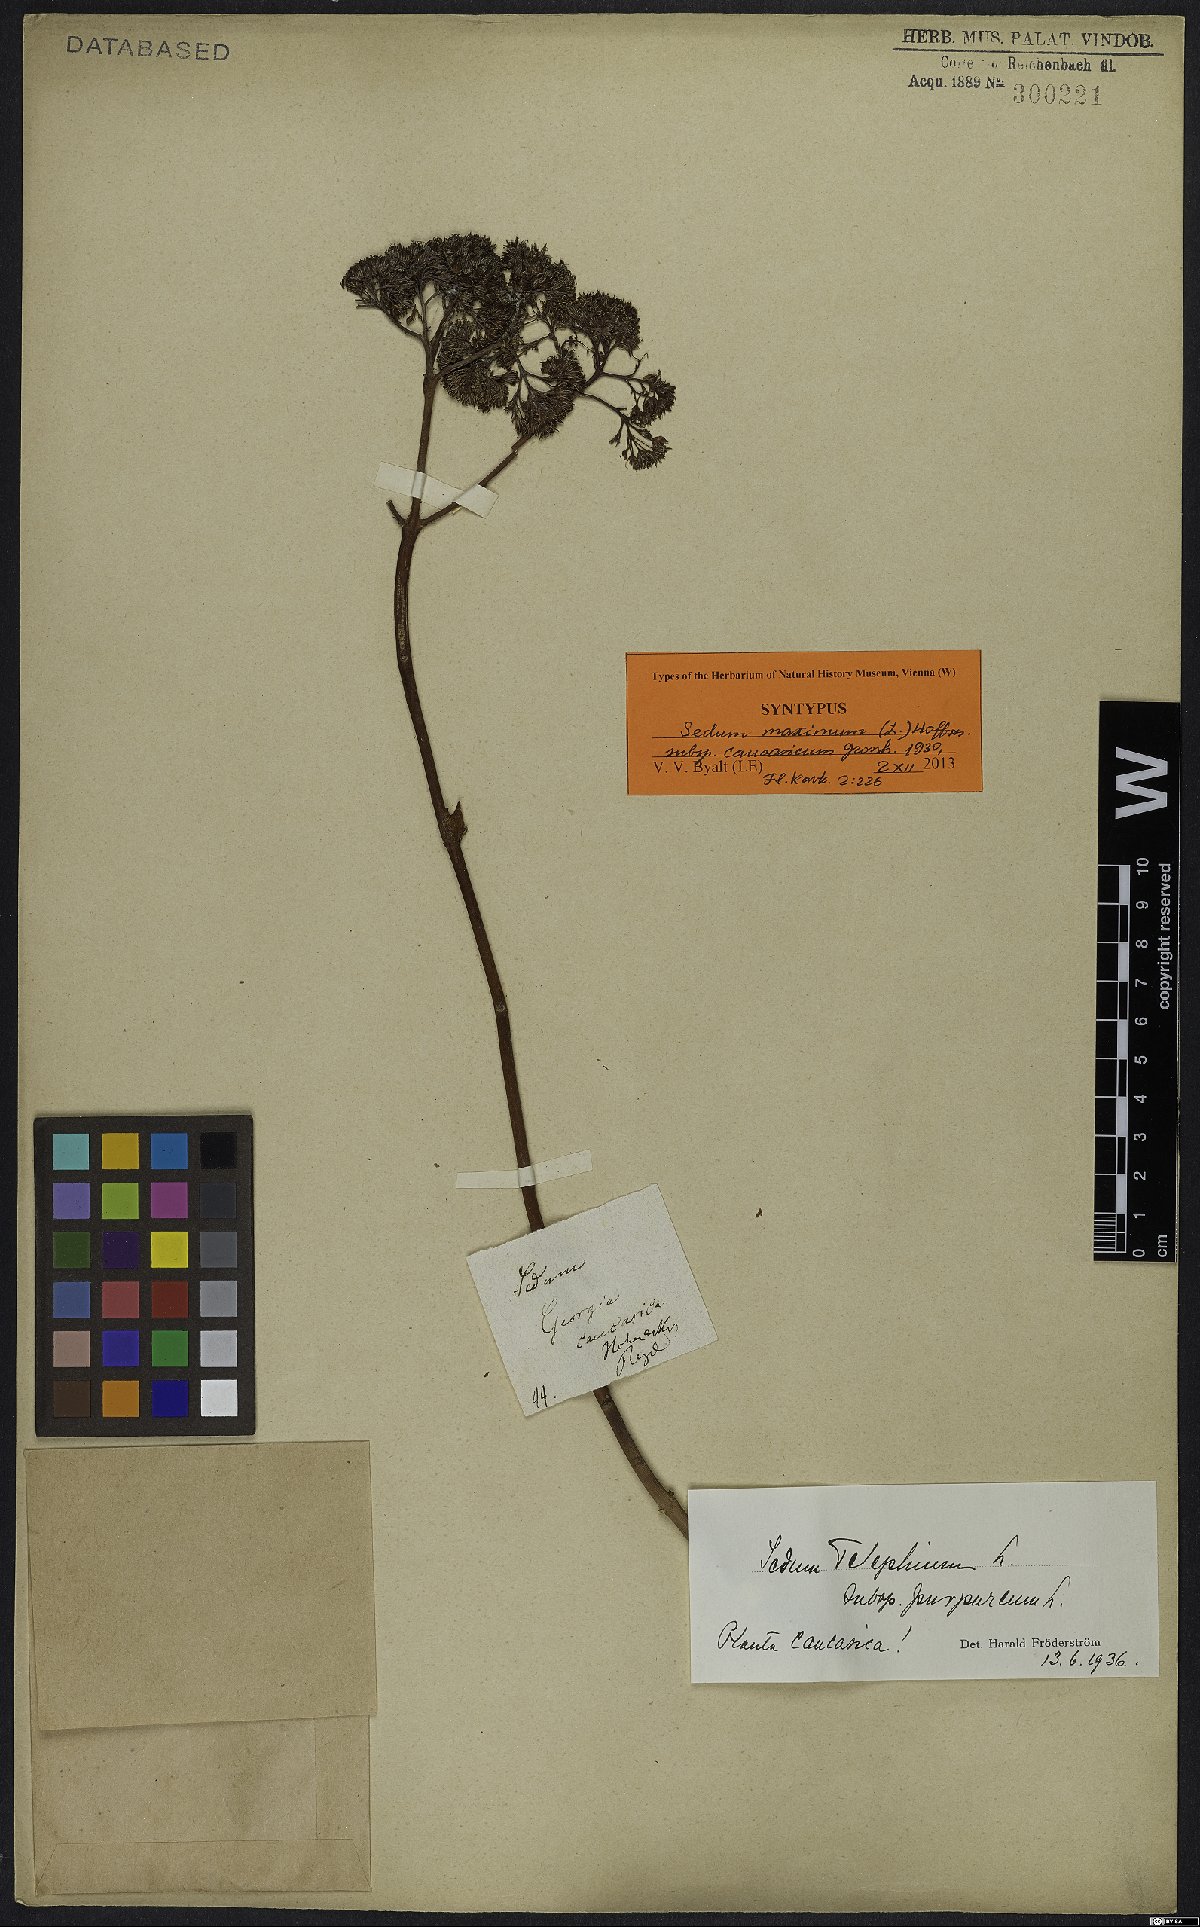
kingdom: Plantae
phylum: Tracheophyta
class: Magnoliopsida
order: Saxifragales
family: Crassulaceae
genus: Hylotelephium
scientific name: Hylotelephium maximum
